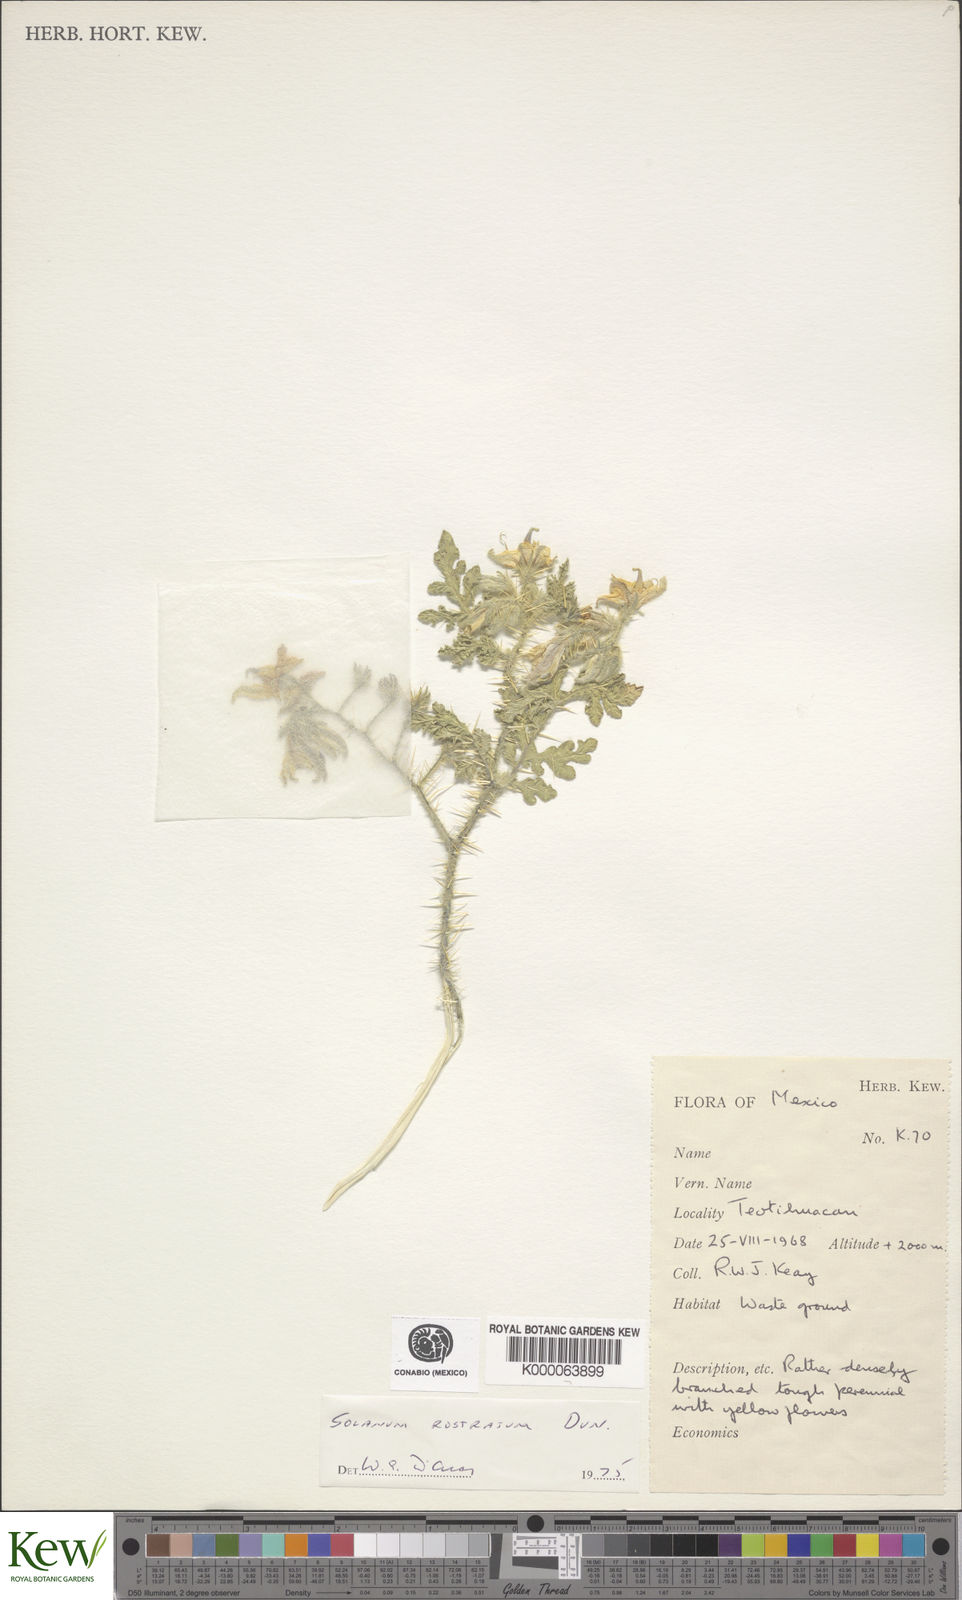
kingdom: Plantae
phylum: Tracheophyta
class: Magnoliopsida
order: Solanales
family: Solanaceae
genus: Solanum
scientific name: Solanum angustifolium
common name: Buffalobur nightshade
